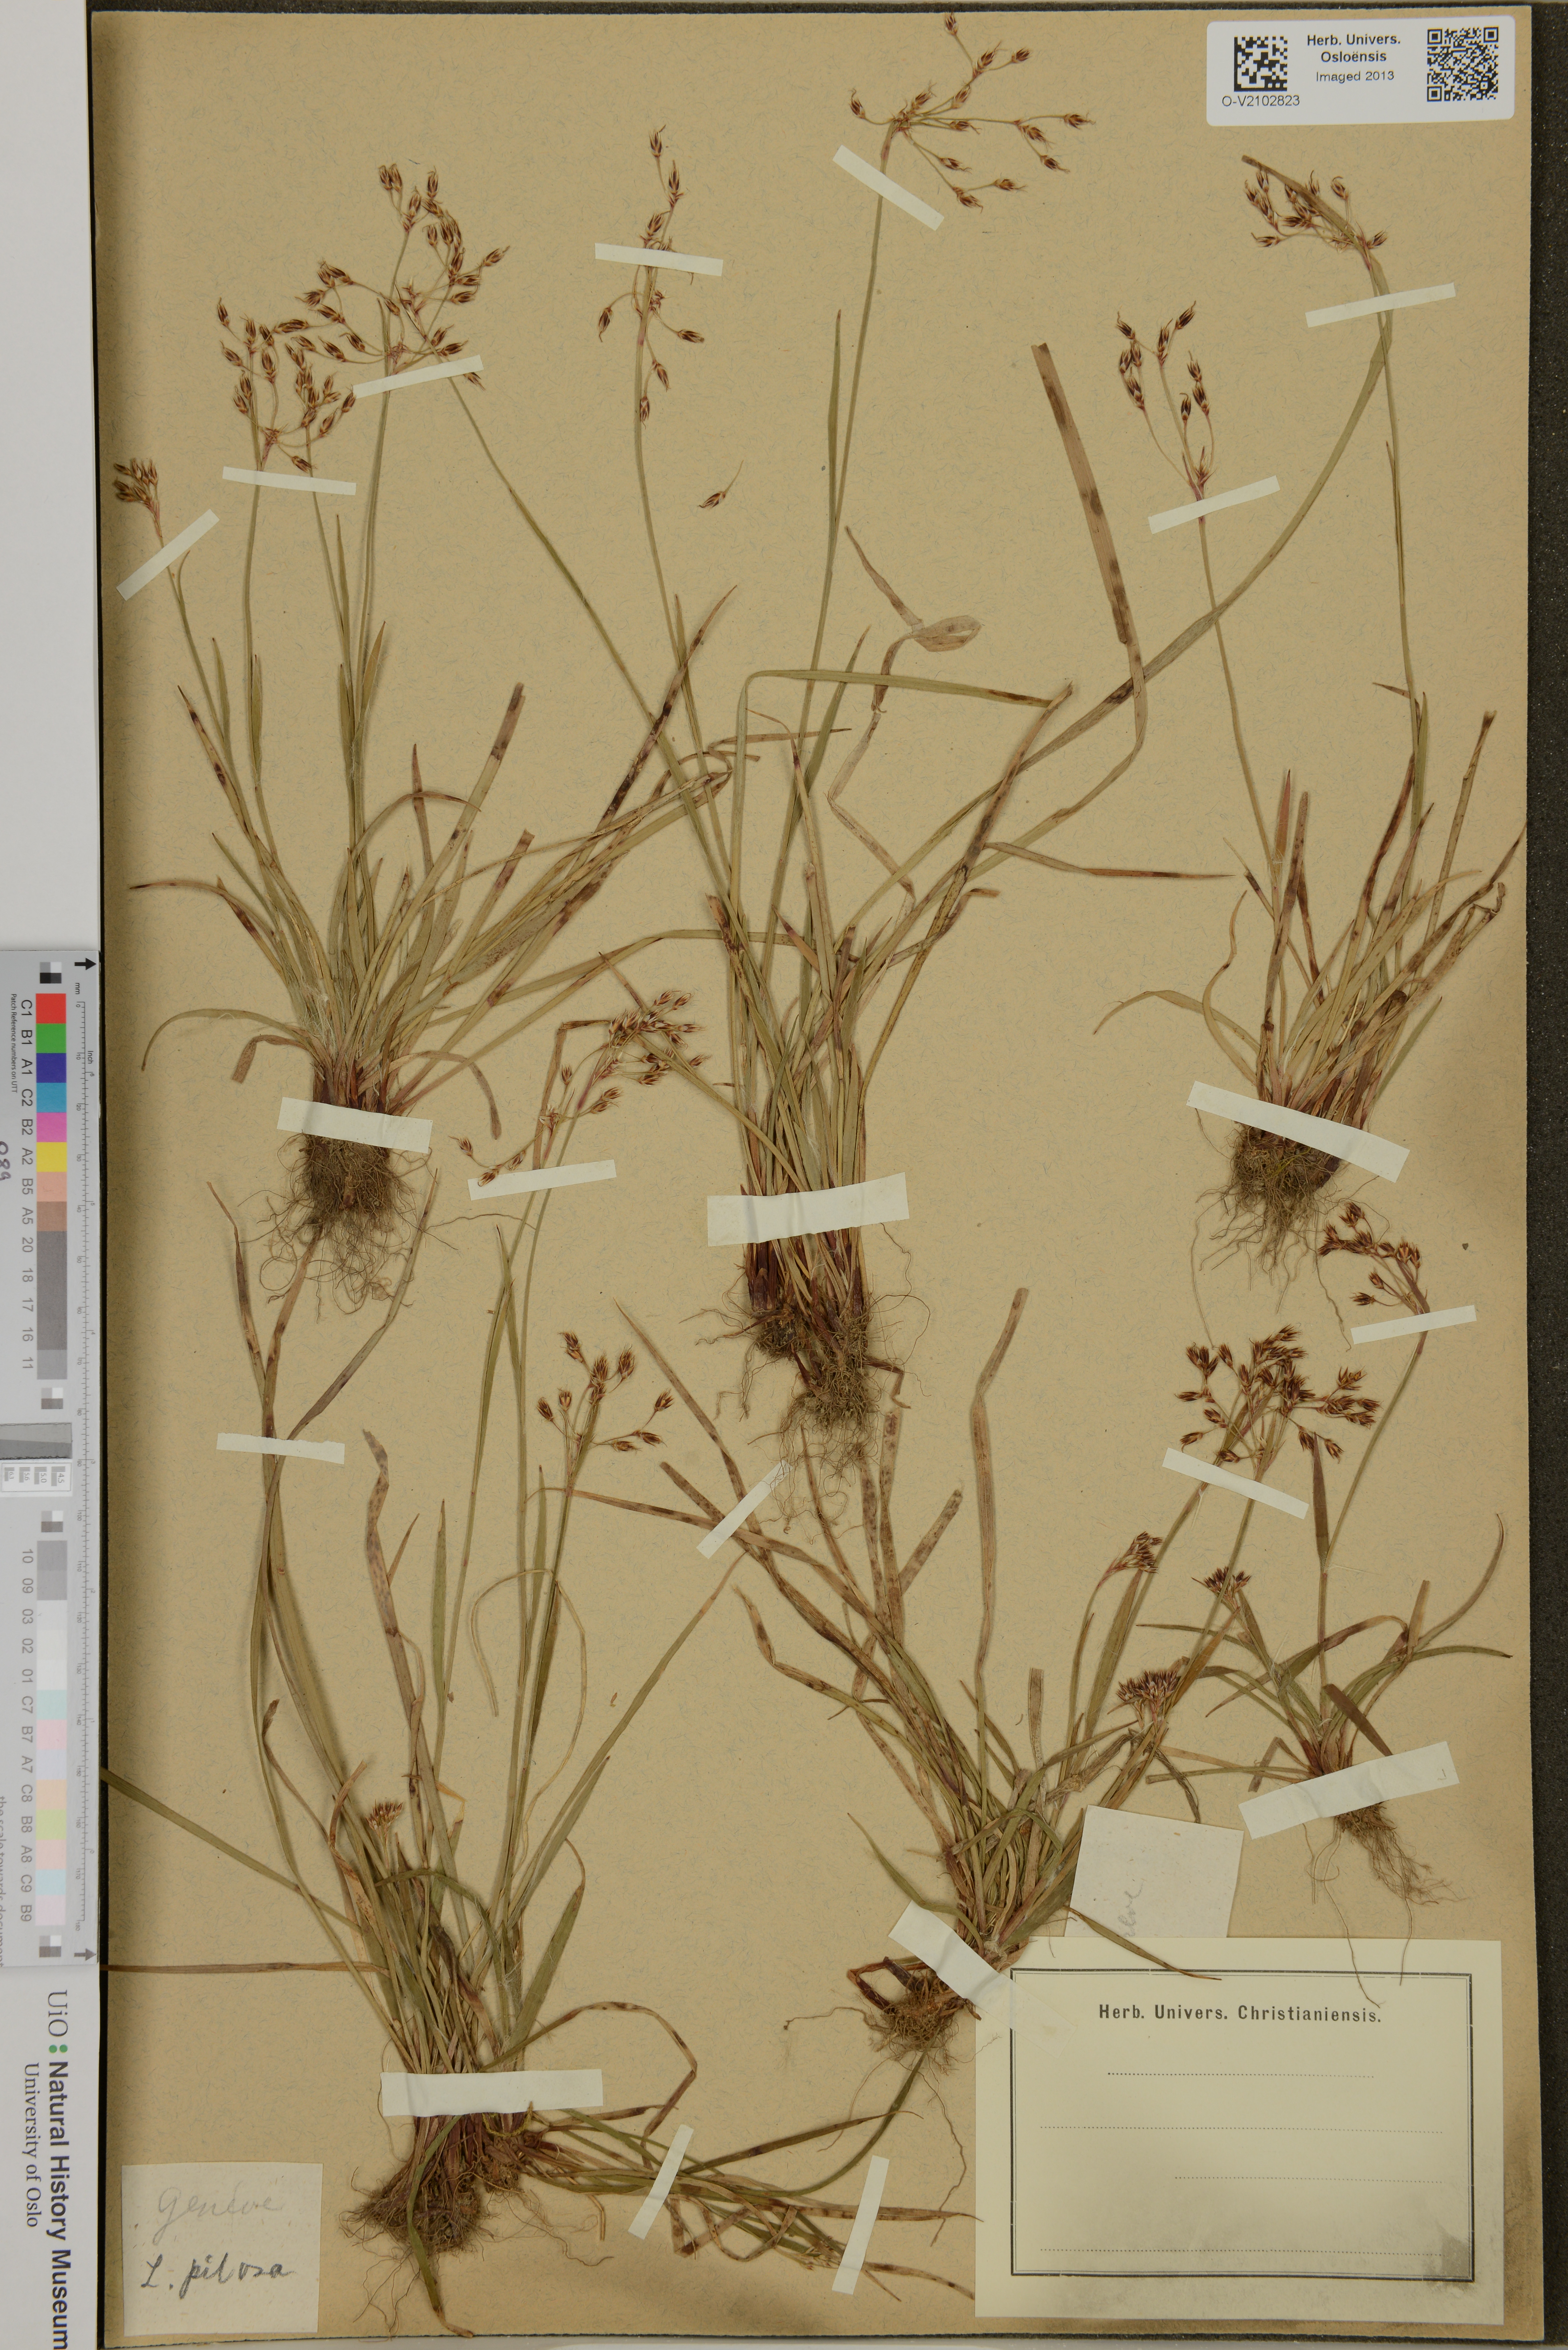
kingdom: Plantae
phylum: Tracheophyta
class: Liliopsida
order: Poales
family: Juncaceae
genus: Luzula
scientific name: Luzula pilosa
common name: Hairy wood-rush
